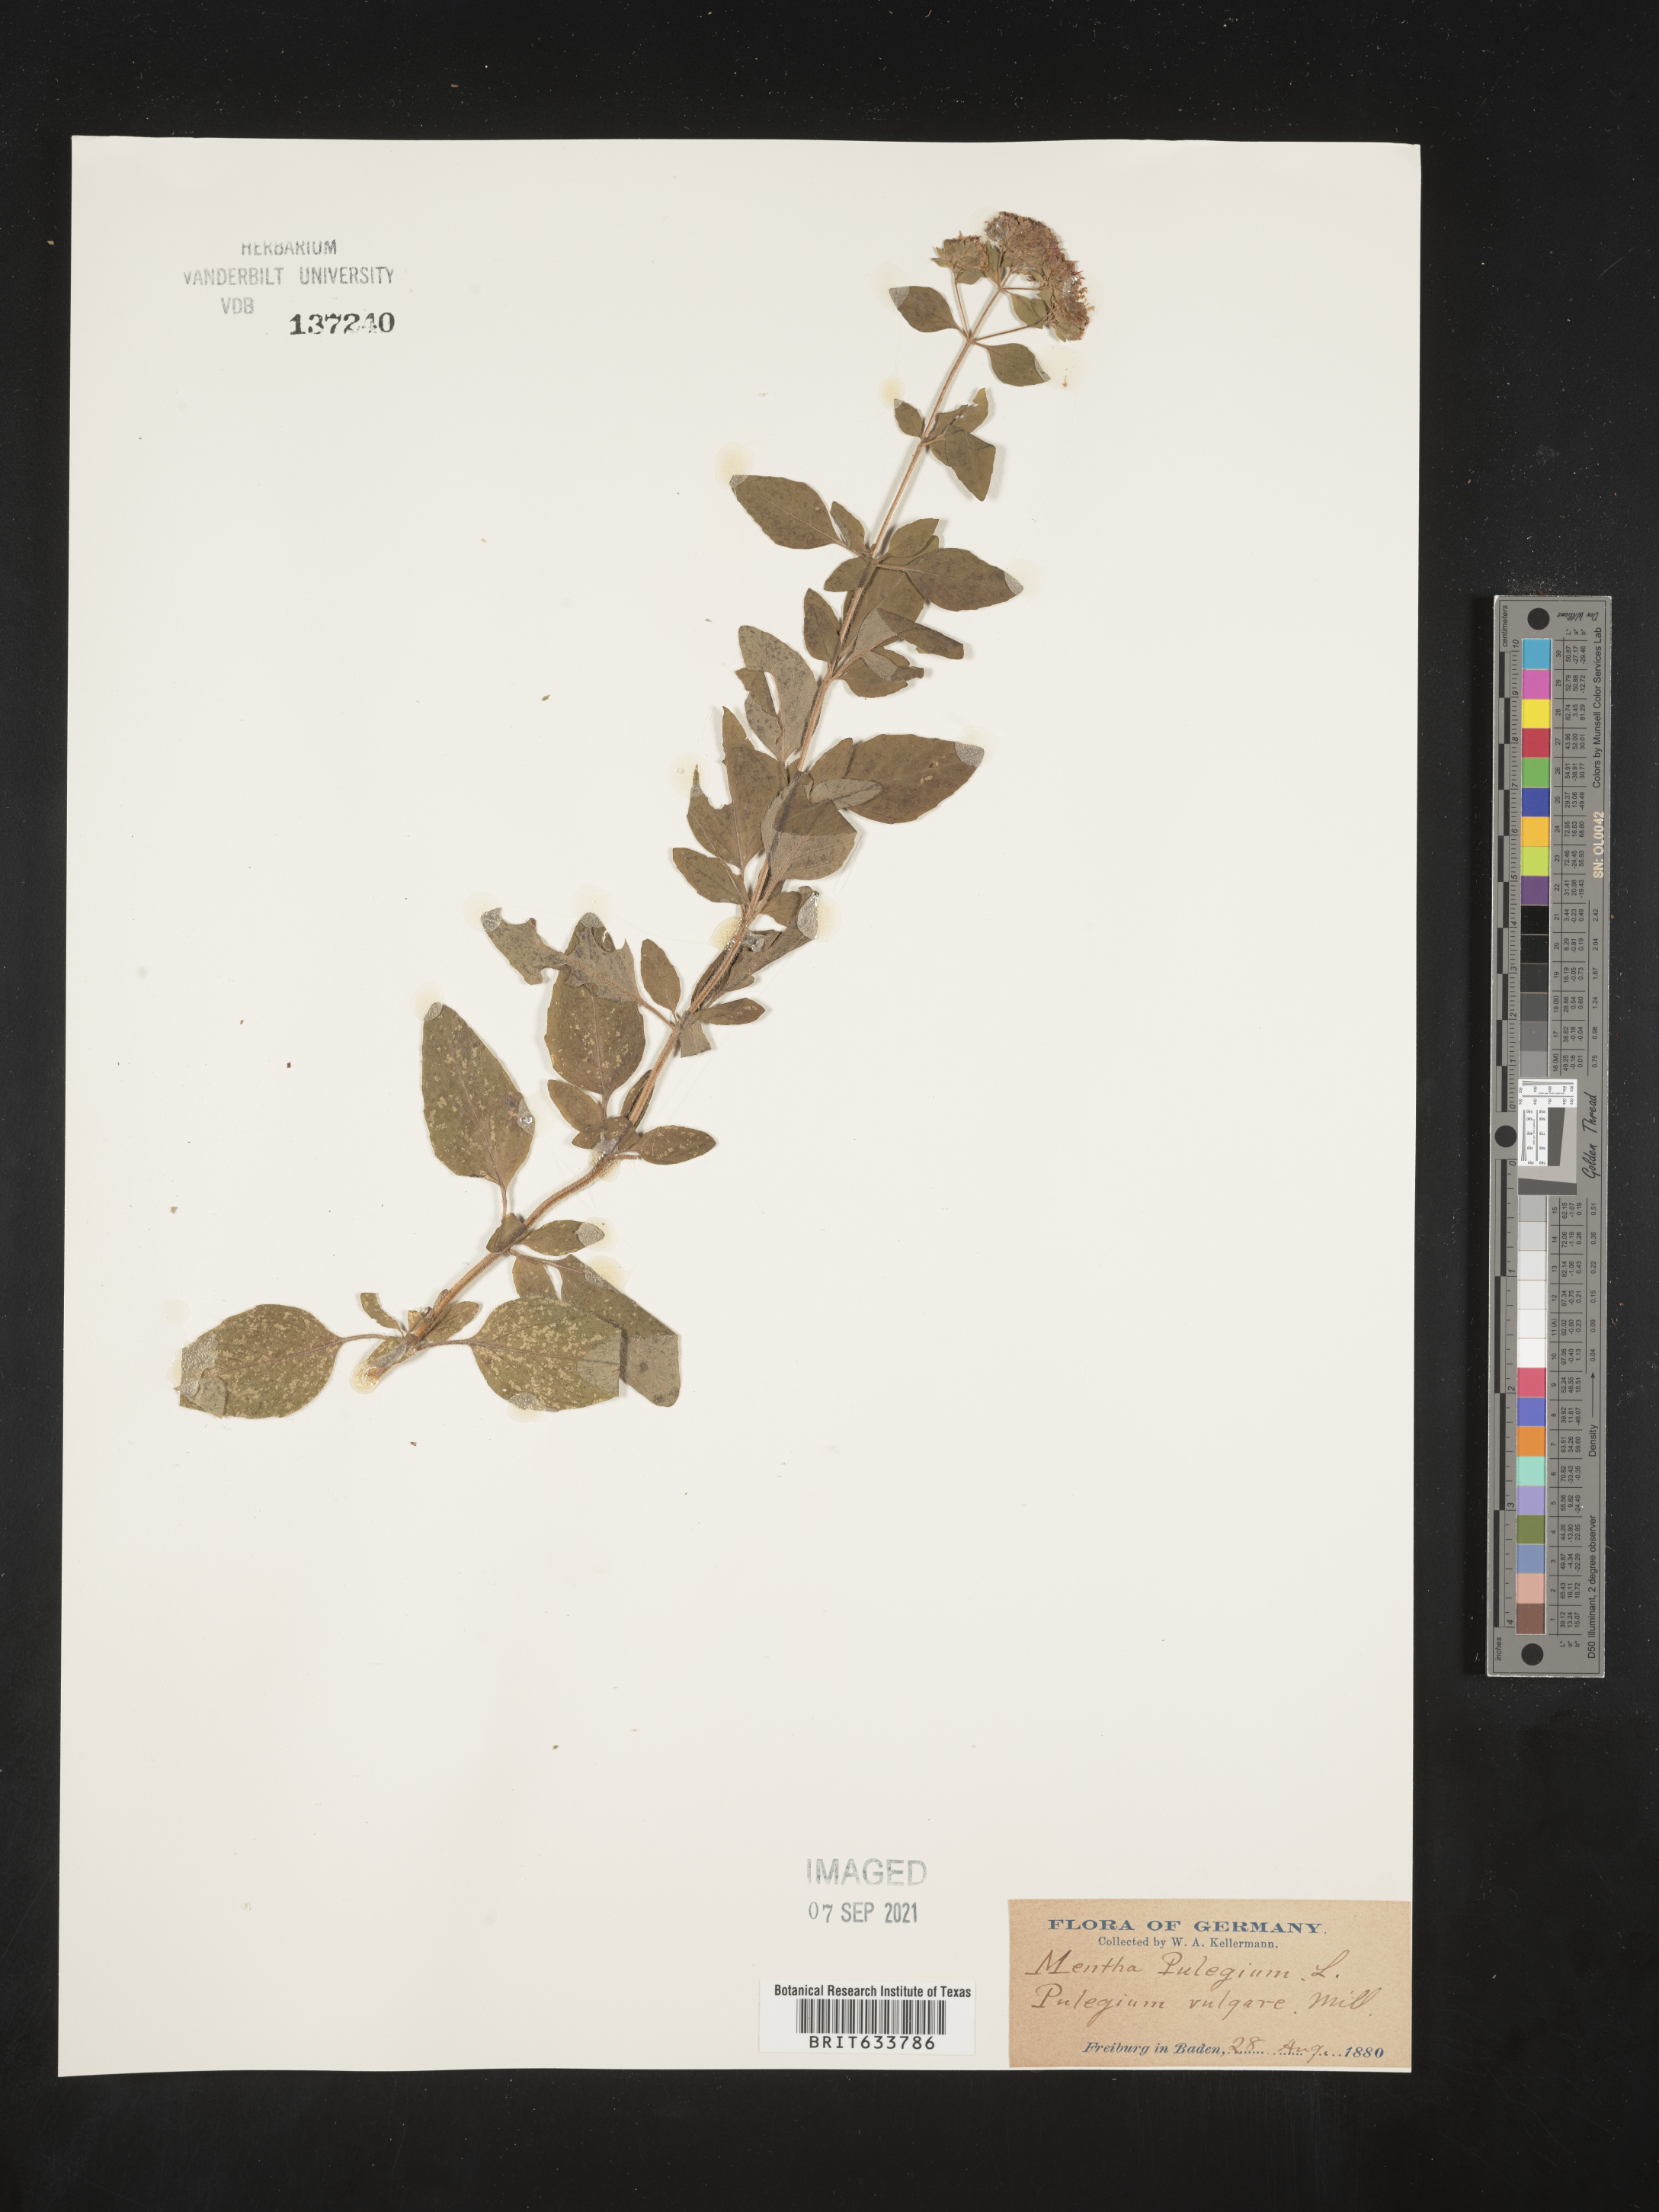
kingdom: Plantae
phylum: Tracheophyta
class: Magnoliopsida
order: Lamiales
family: Lamiaceae
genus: Mentha
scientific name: Mentha
